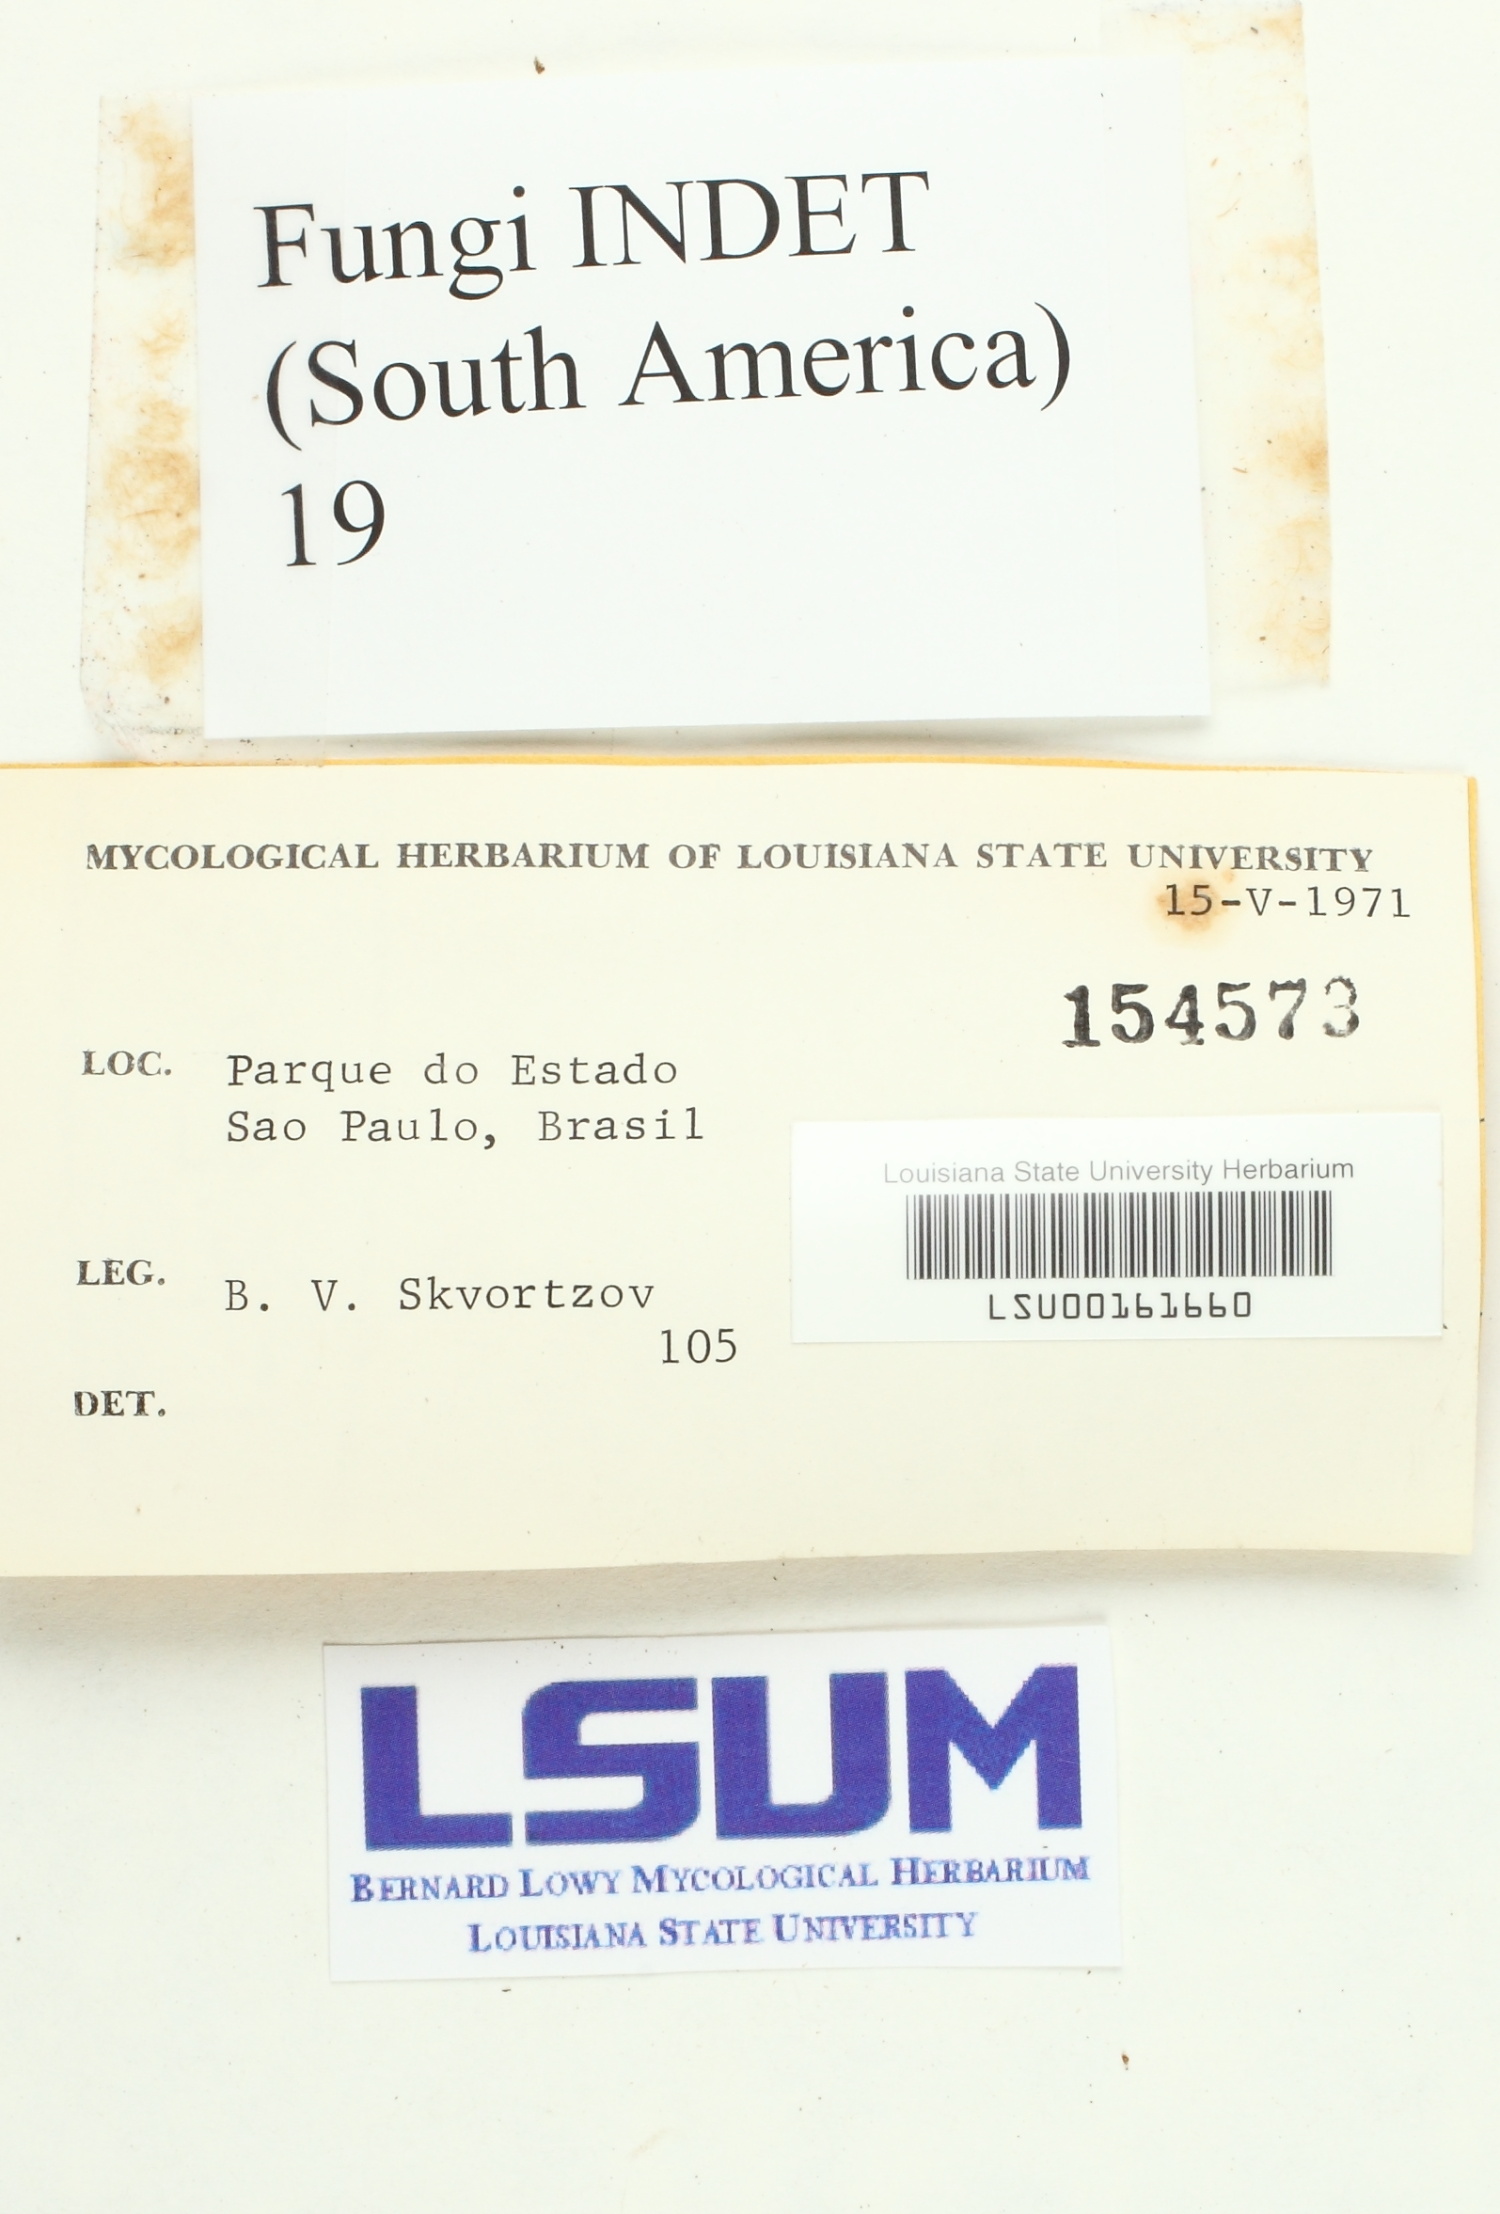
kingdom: Fungi
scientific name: Fungi
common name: Fungi
